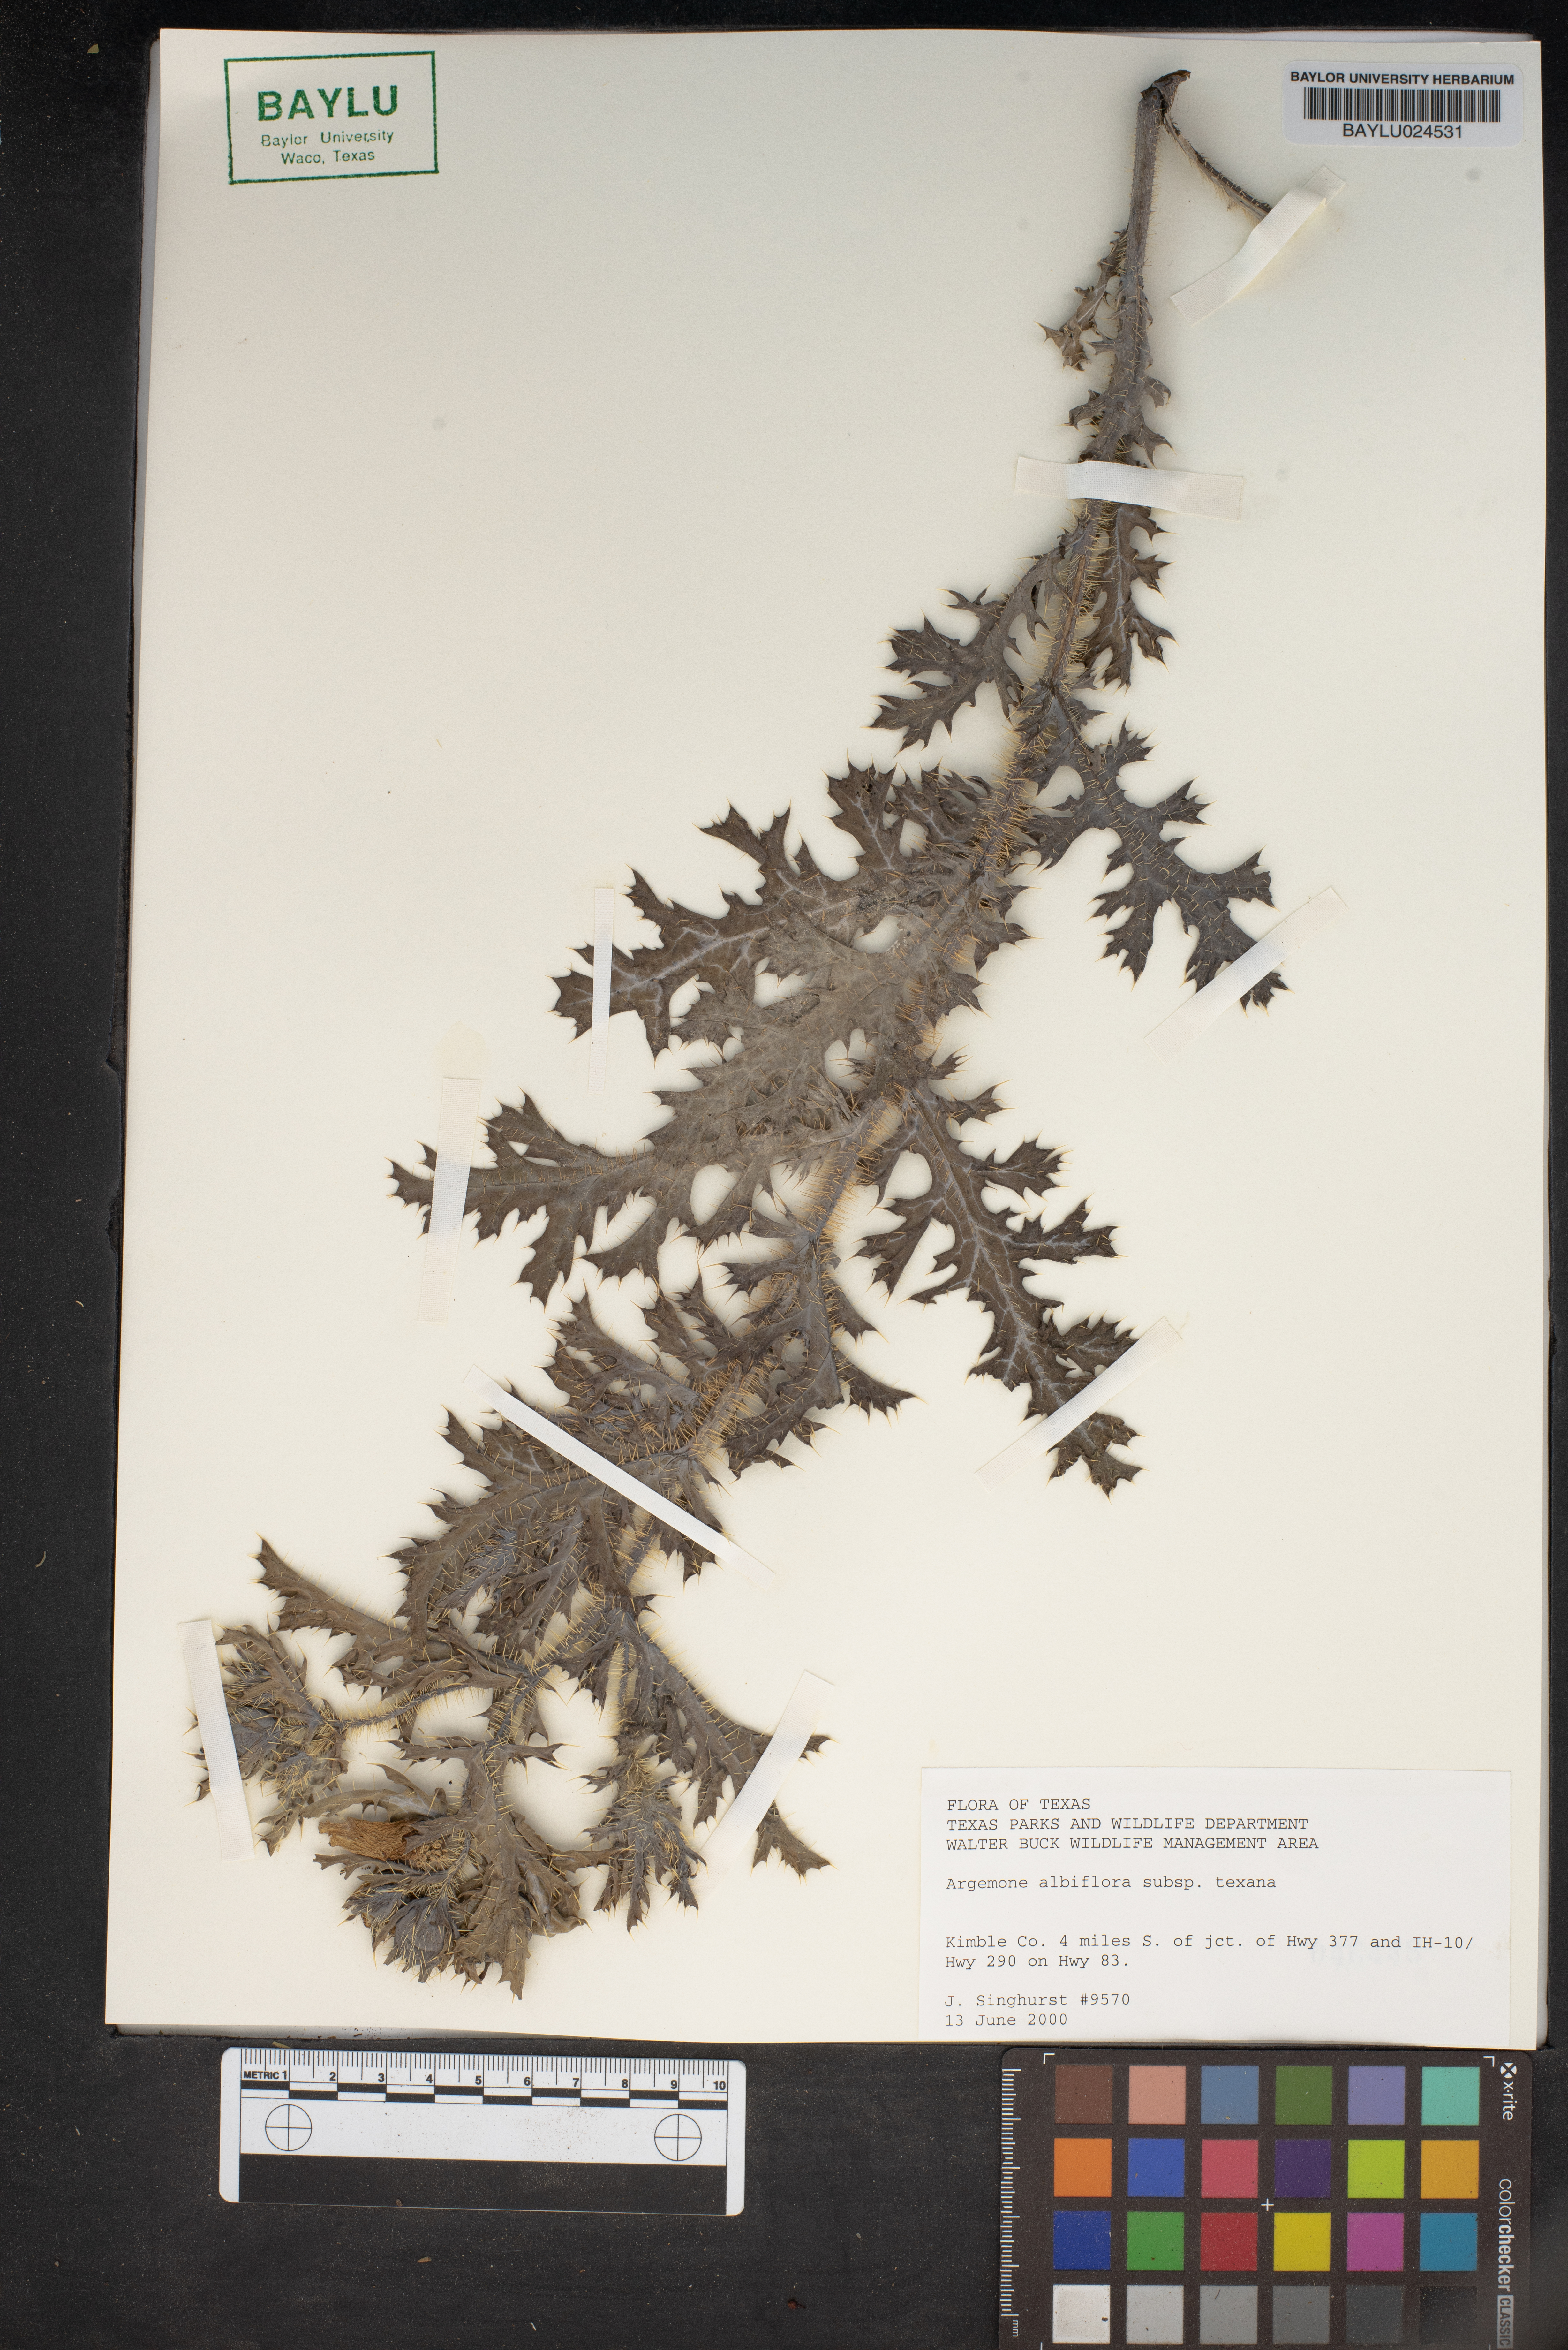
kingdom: Plantae
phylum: Tracheophyta
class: Magnoliopsida
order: Ranunculales
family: Papaveraceae
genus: Argemone
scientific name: Argemone albiflora
